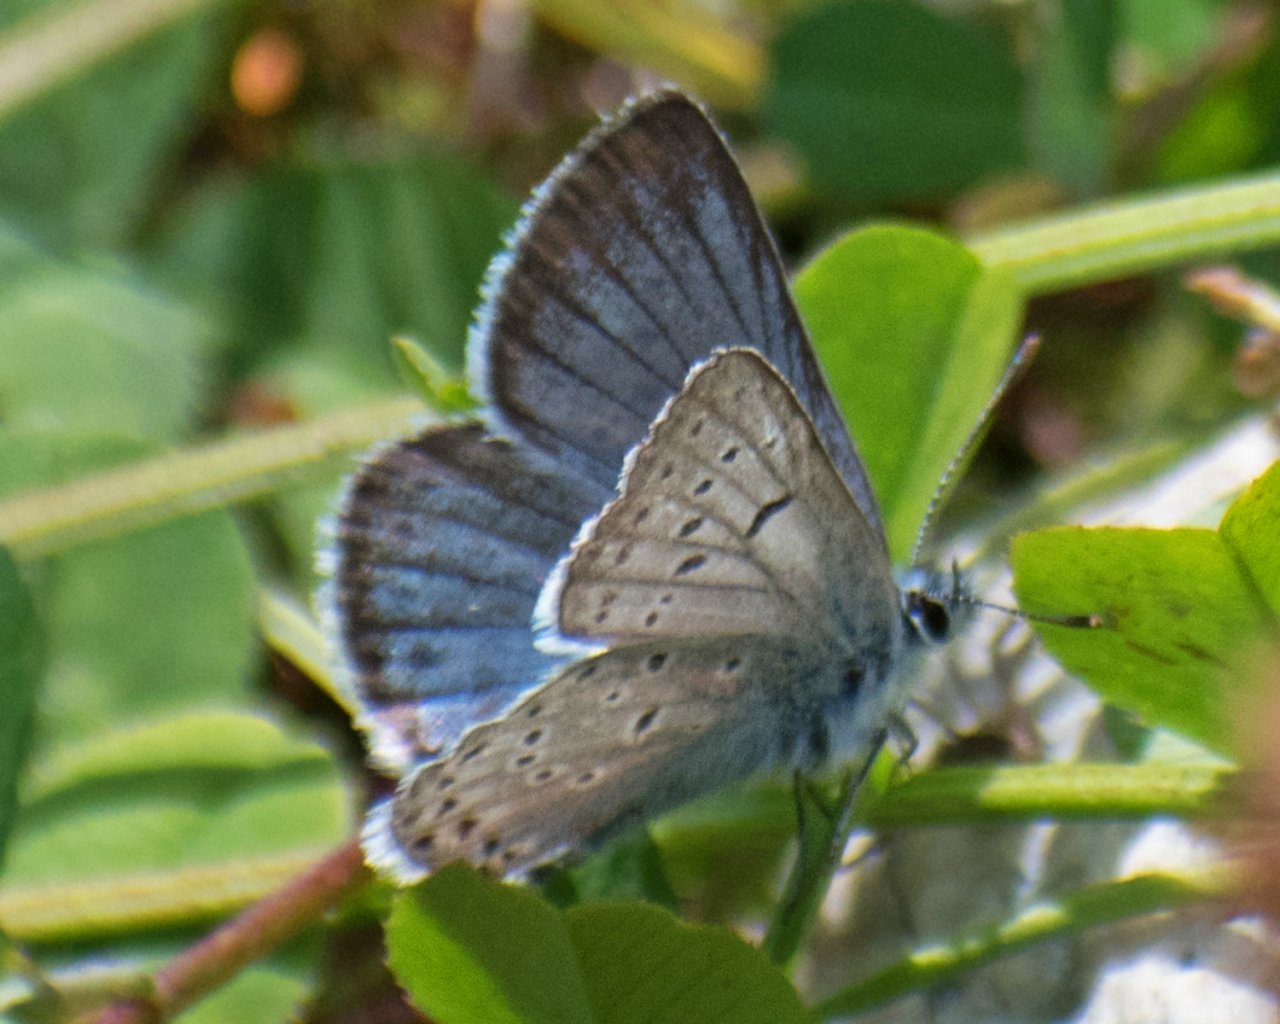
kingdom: Animalia
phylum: Arthropoda
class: Insecta
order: Lepidoptera
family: Lycaenidae
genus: Plebejus
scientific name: Plebejus saepiolus
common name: Greenish Blue
